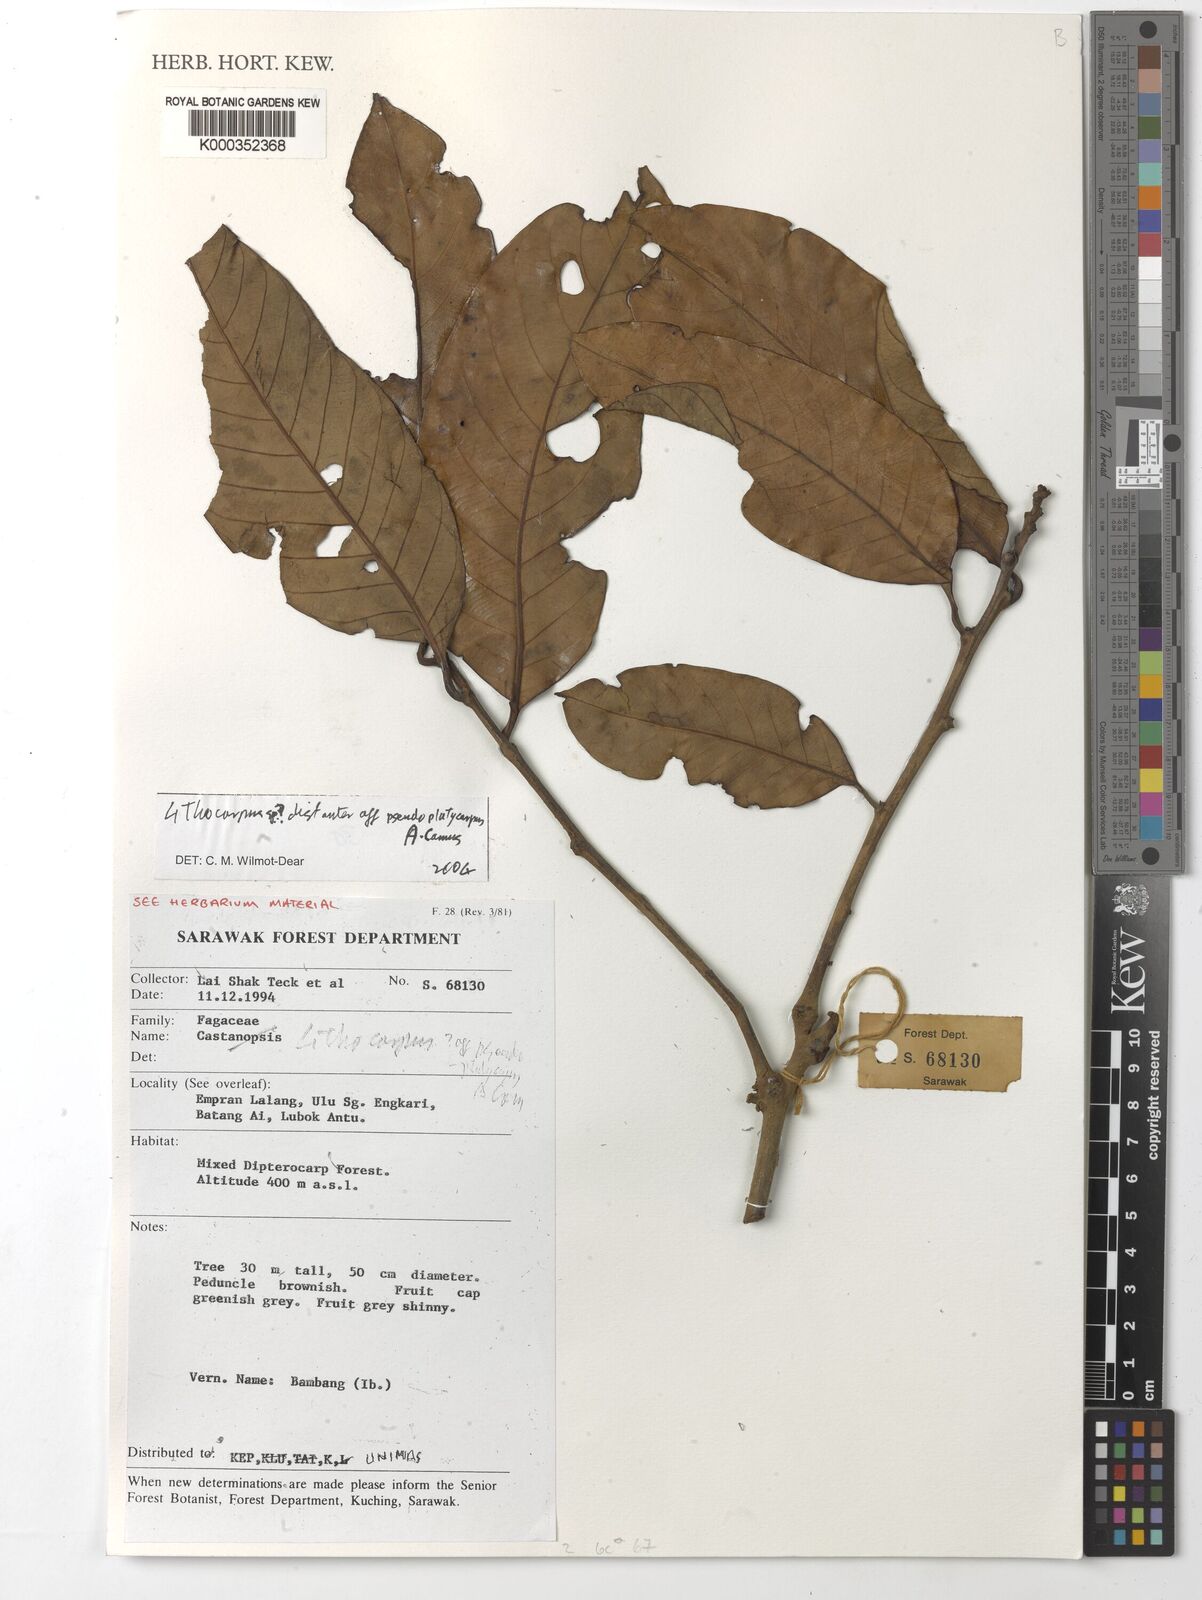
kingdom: Plantae
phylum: Tracheophyta
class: Magnoliopsida
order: Fagales
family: Fagaceae
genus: Lithocarpus
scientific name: Lithocarpus
